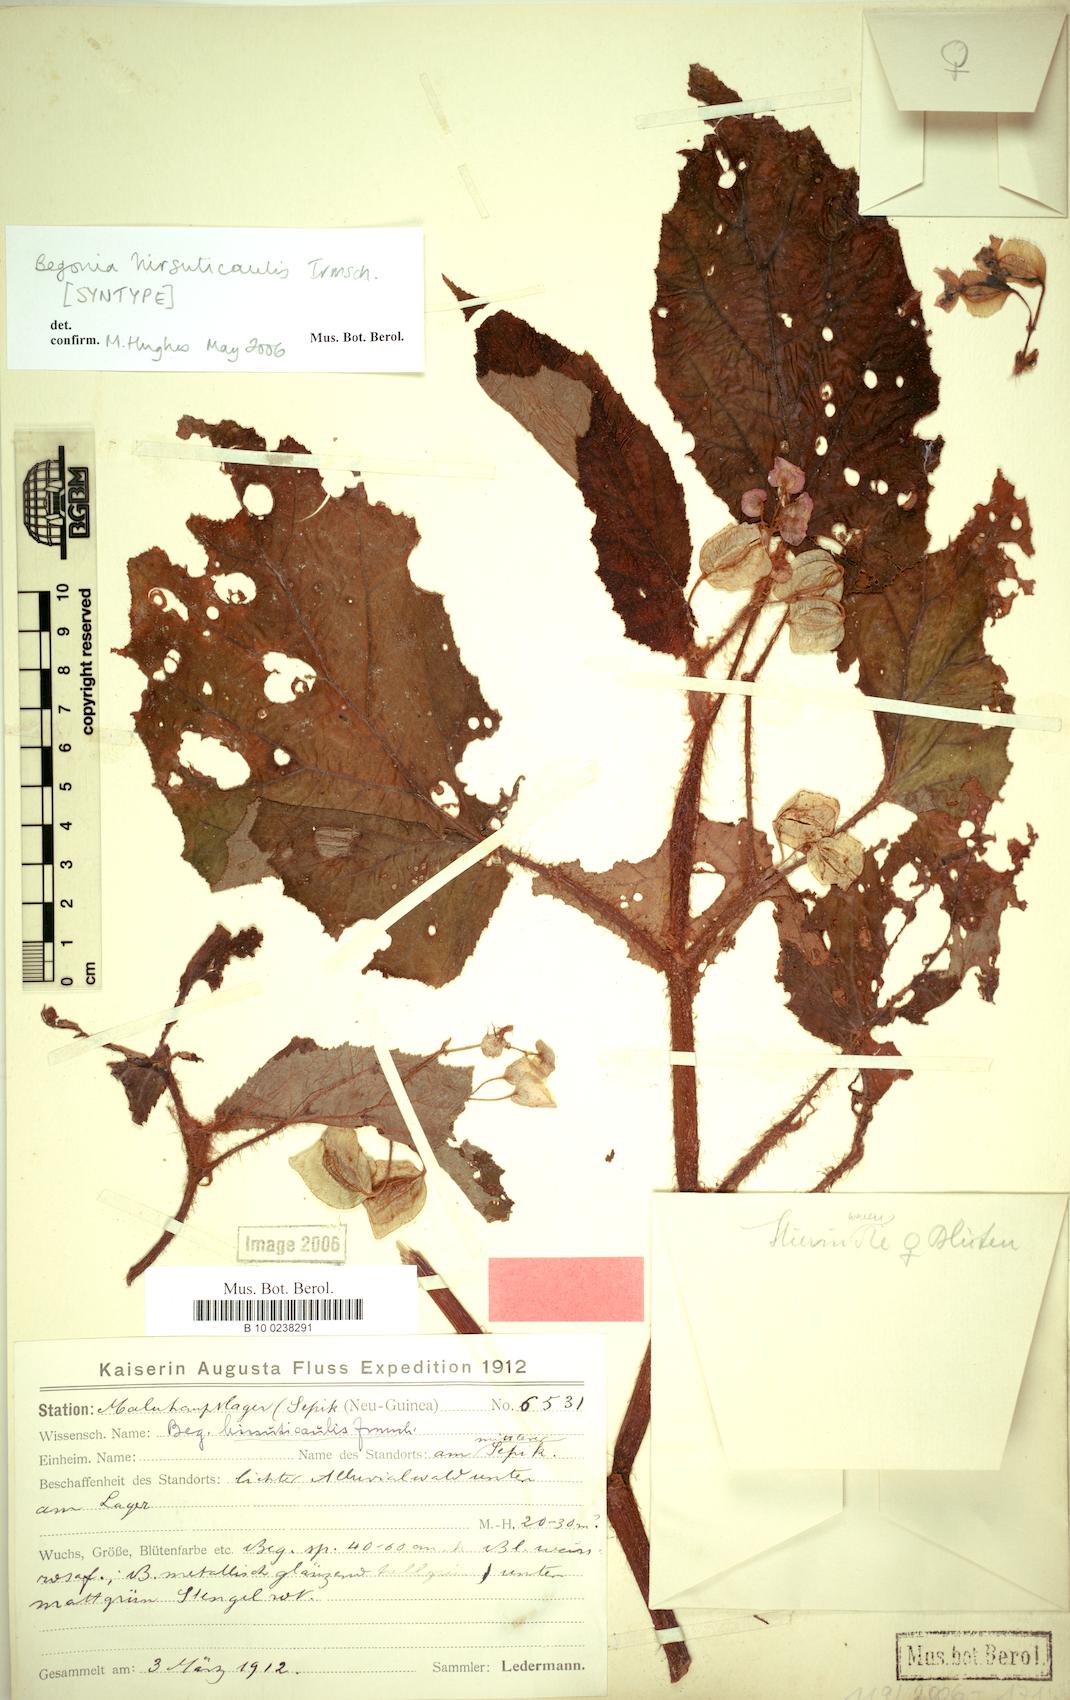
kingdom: Plantae
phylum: Tracheophyta
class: Magnoliopsida
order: Cucurbitales
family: Begoniaceae
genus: Begonia
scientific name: Begonia hirsuticaulis
